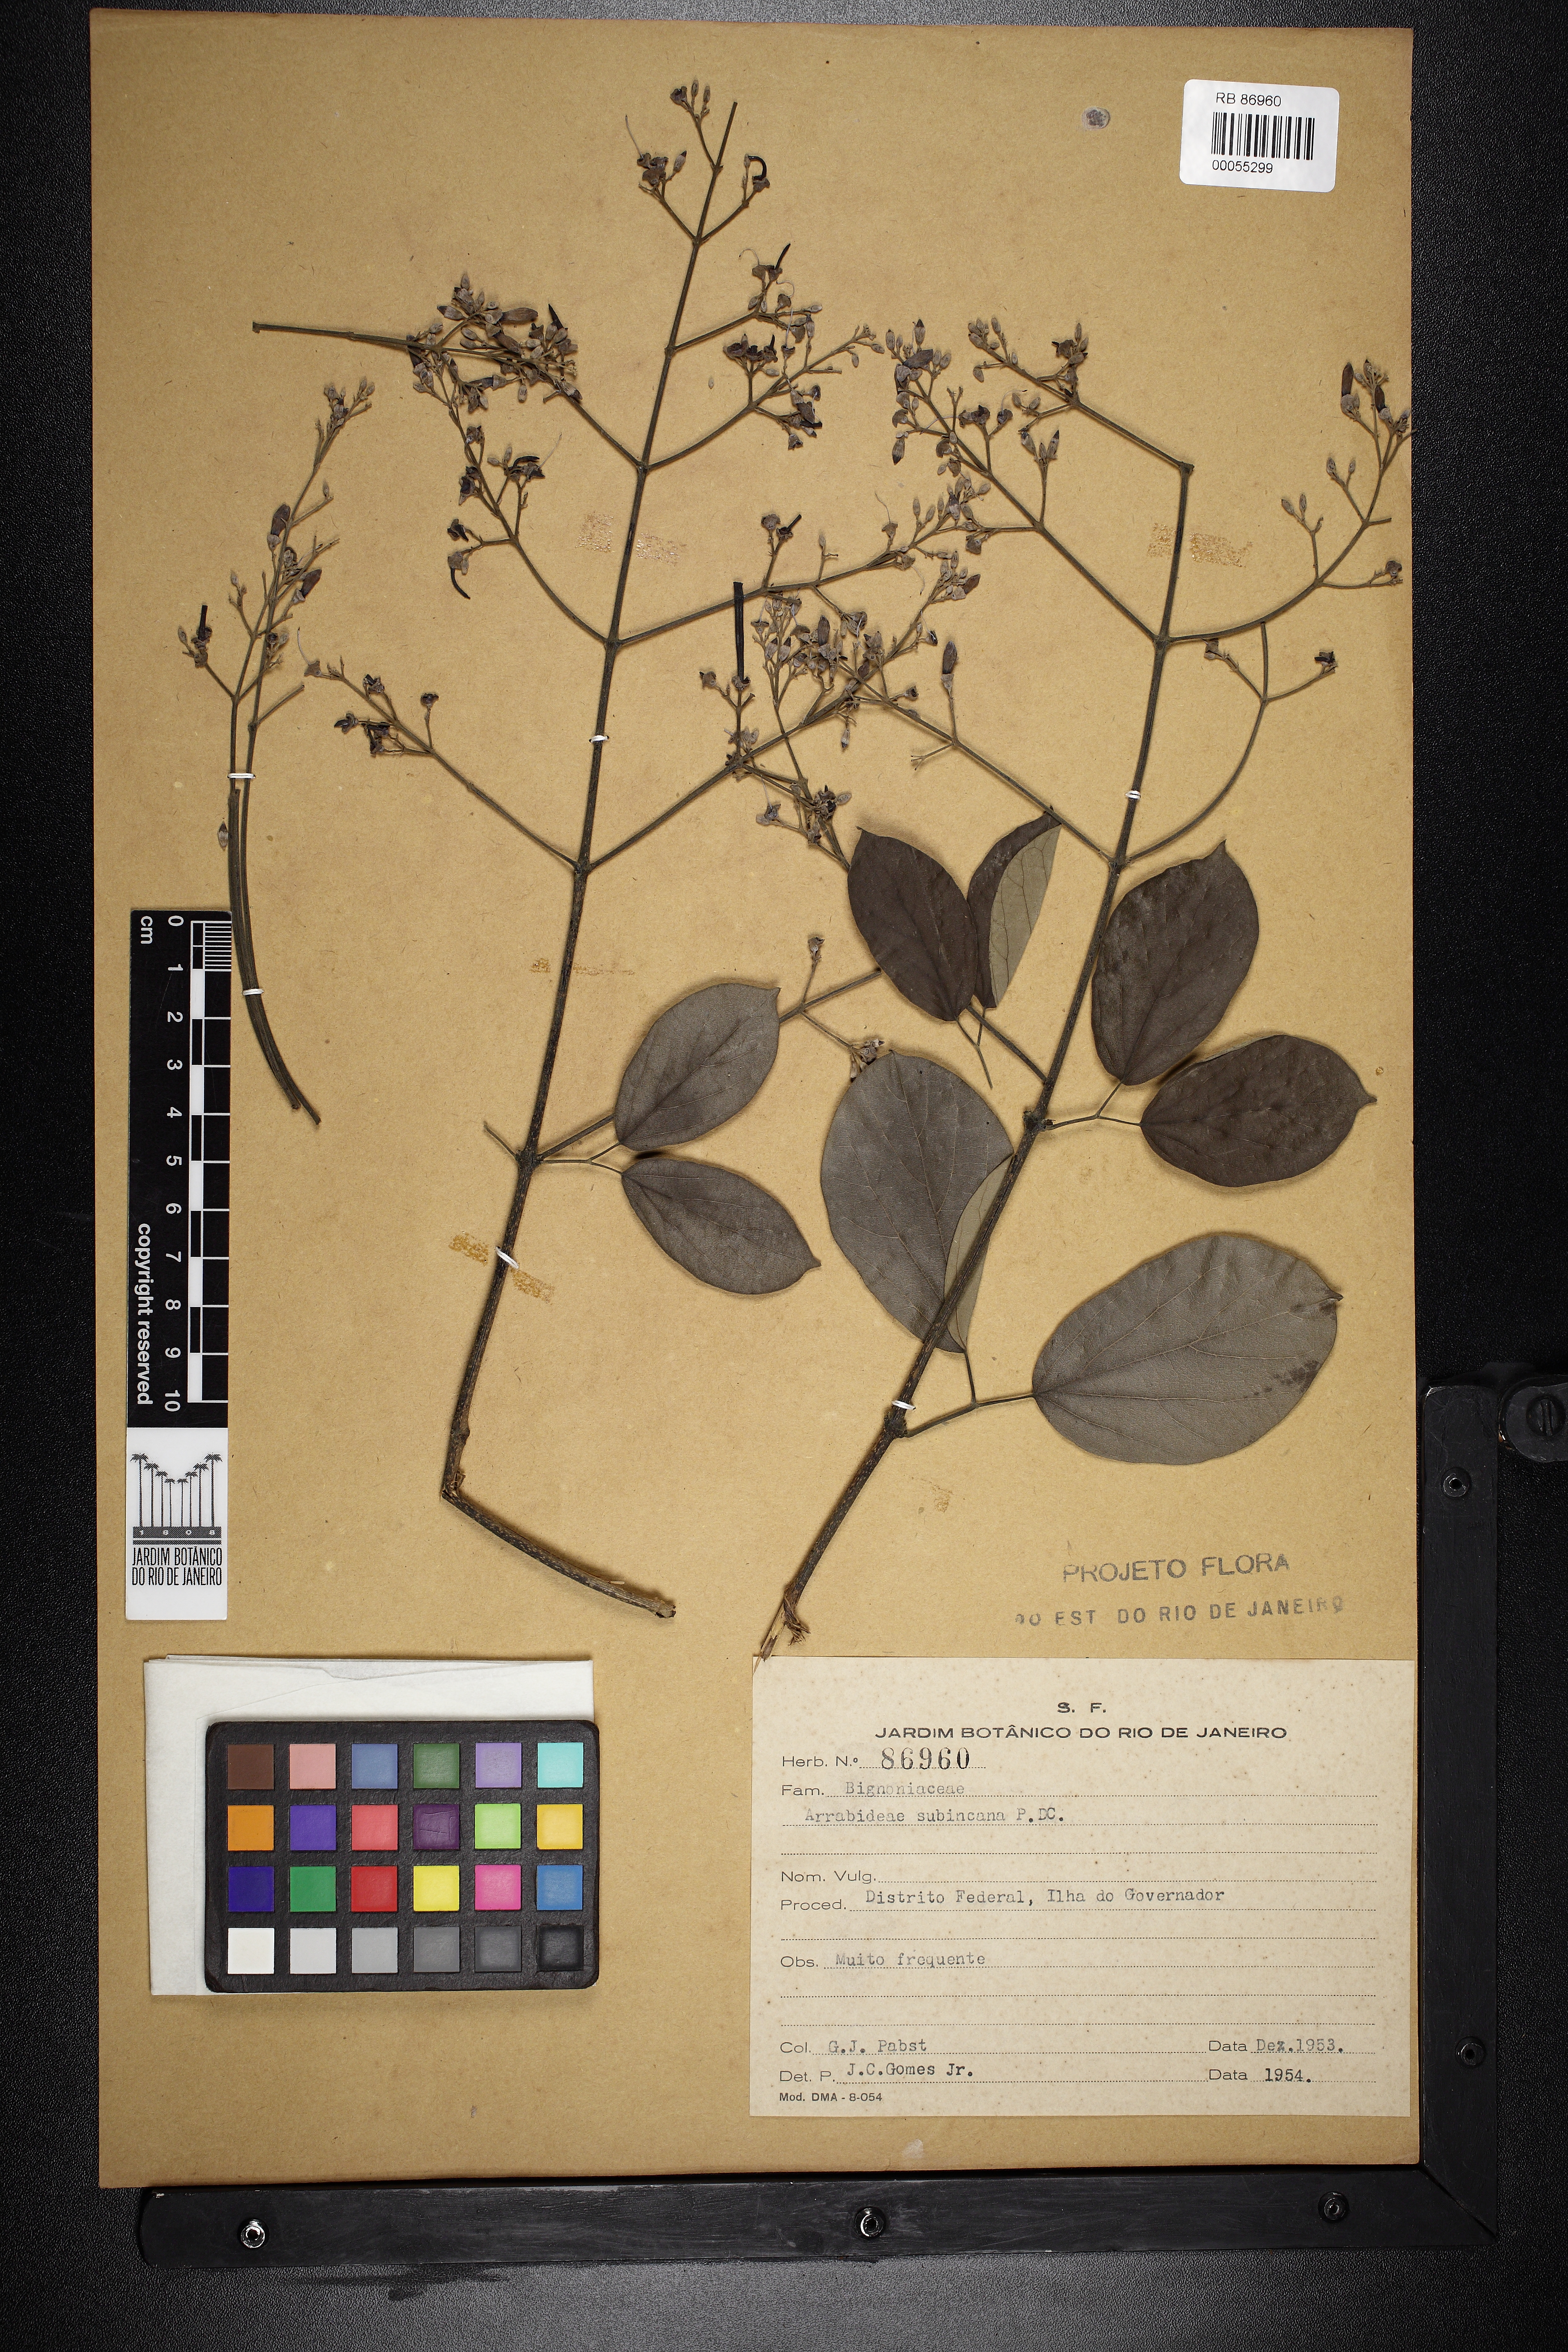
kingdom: Plantae
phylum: Tracheophyta
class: Magnoliopsida
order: Lamiales
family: Bignoniaceae
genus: Fridericia
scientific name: Fridericia subincana
